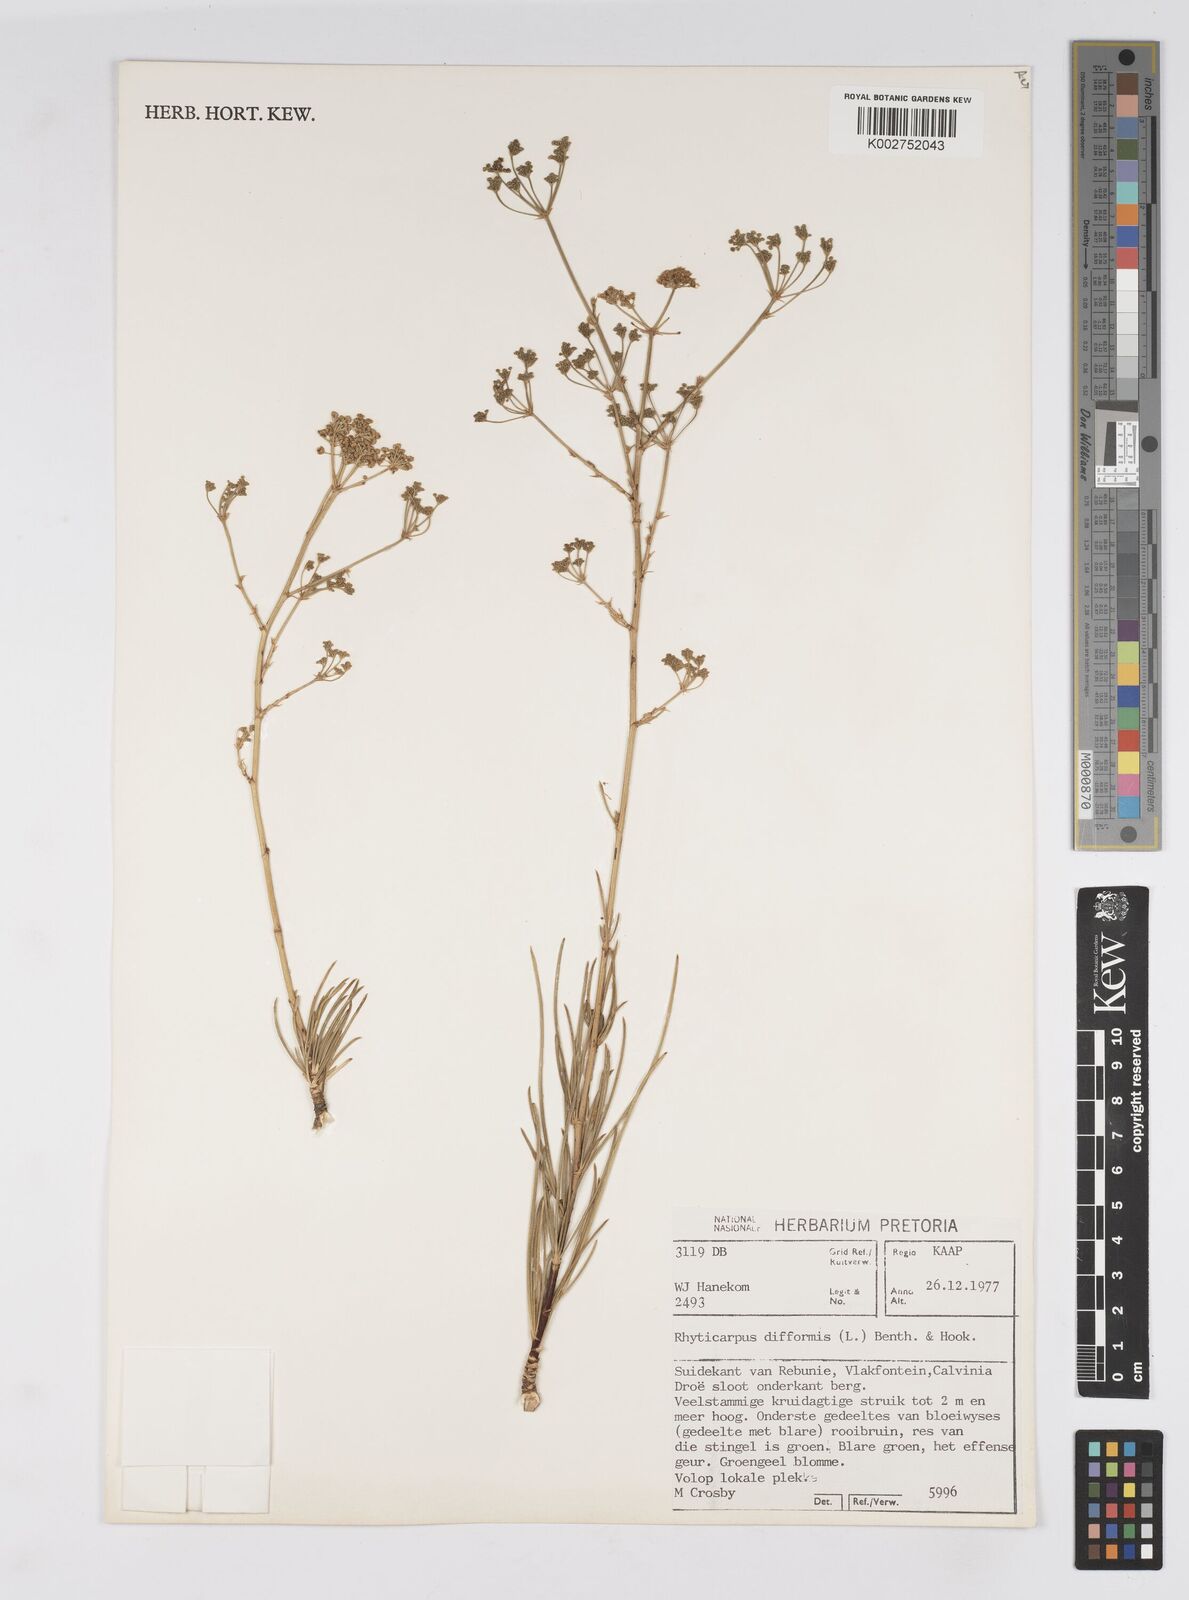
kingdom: Plantae
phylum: Tracheophyta
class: Magnoliopsida
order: Apiales
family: Apiaceae
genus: Anginon
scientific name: Anginon difforme
